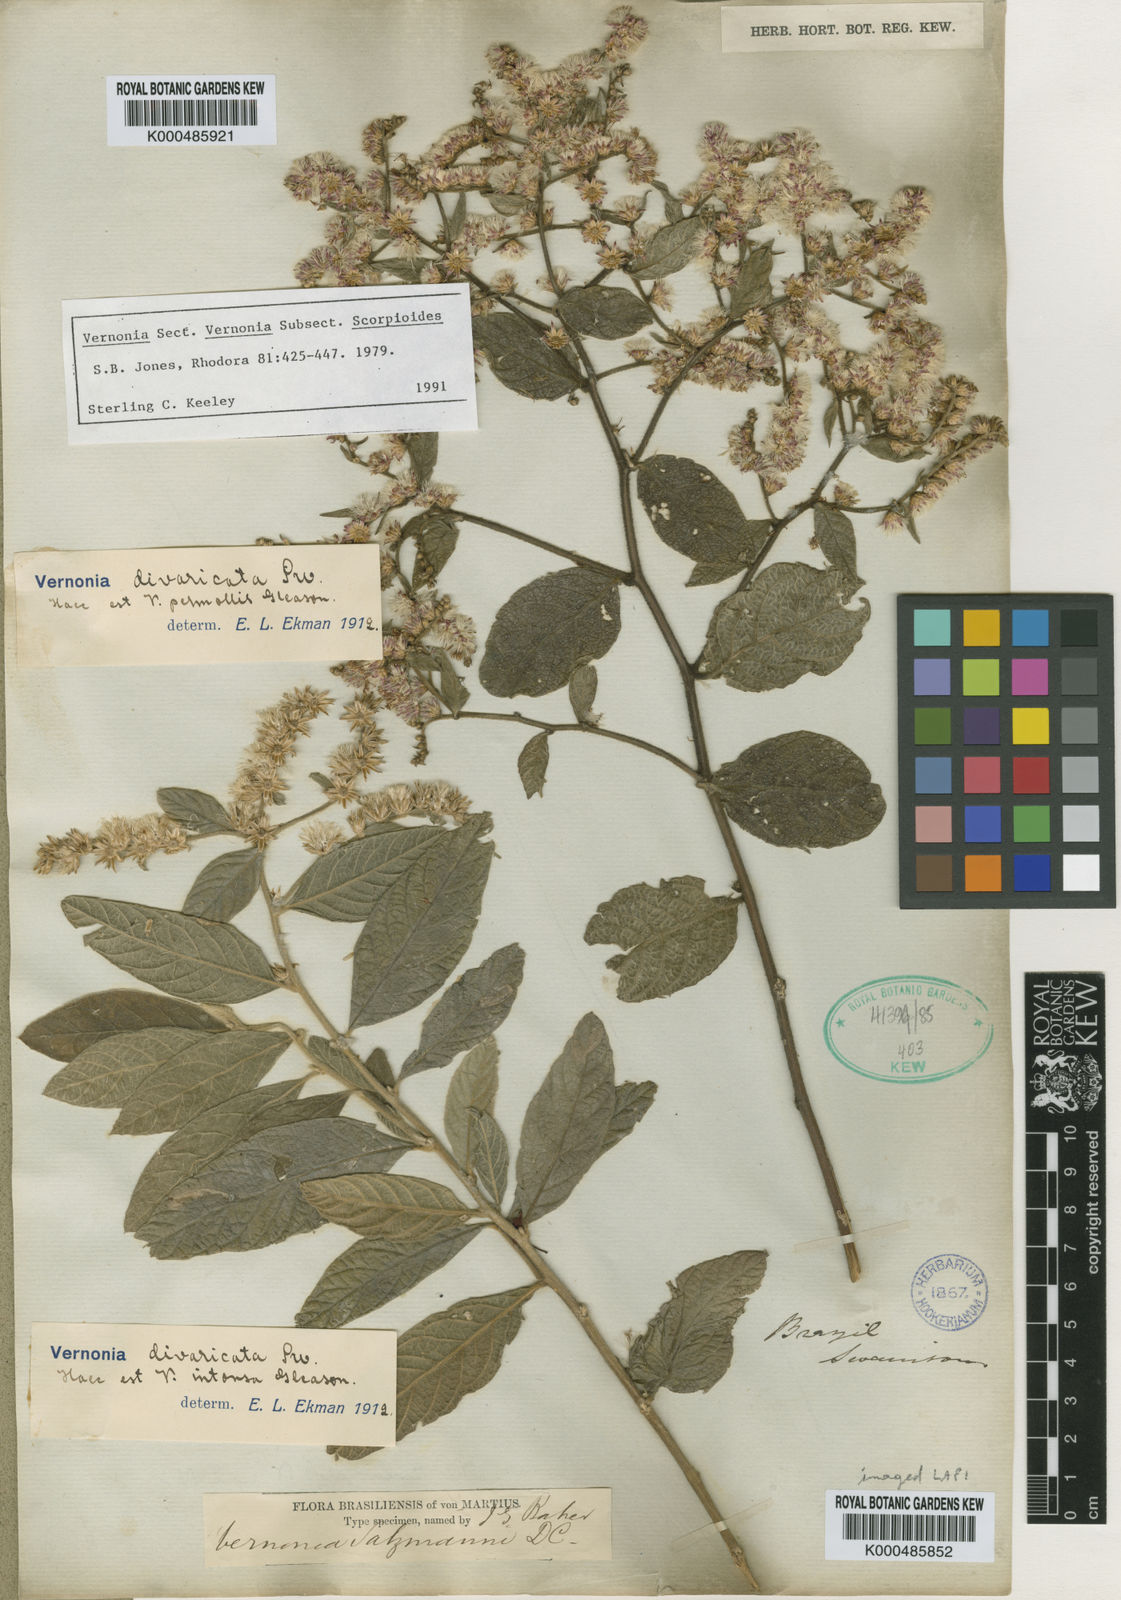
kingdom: Plantae
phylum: Tracheophyta
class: Magnoliopsida
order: Asterales
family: Asteraceae
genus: Lepidaploa
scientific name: Lepidaploa salzmannii
